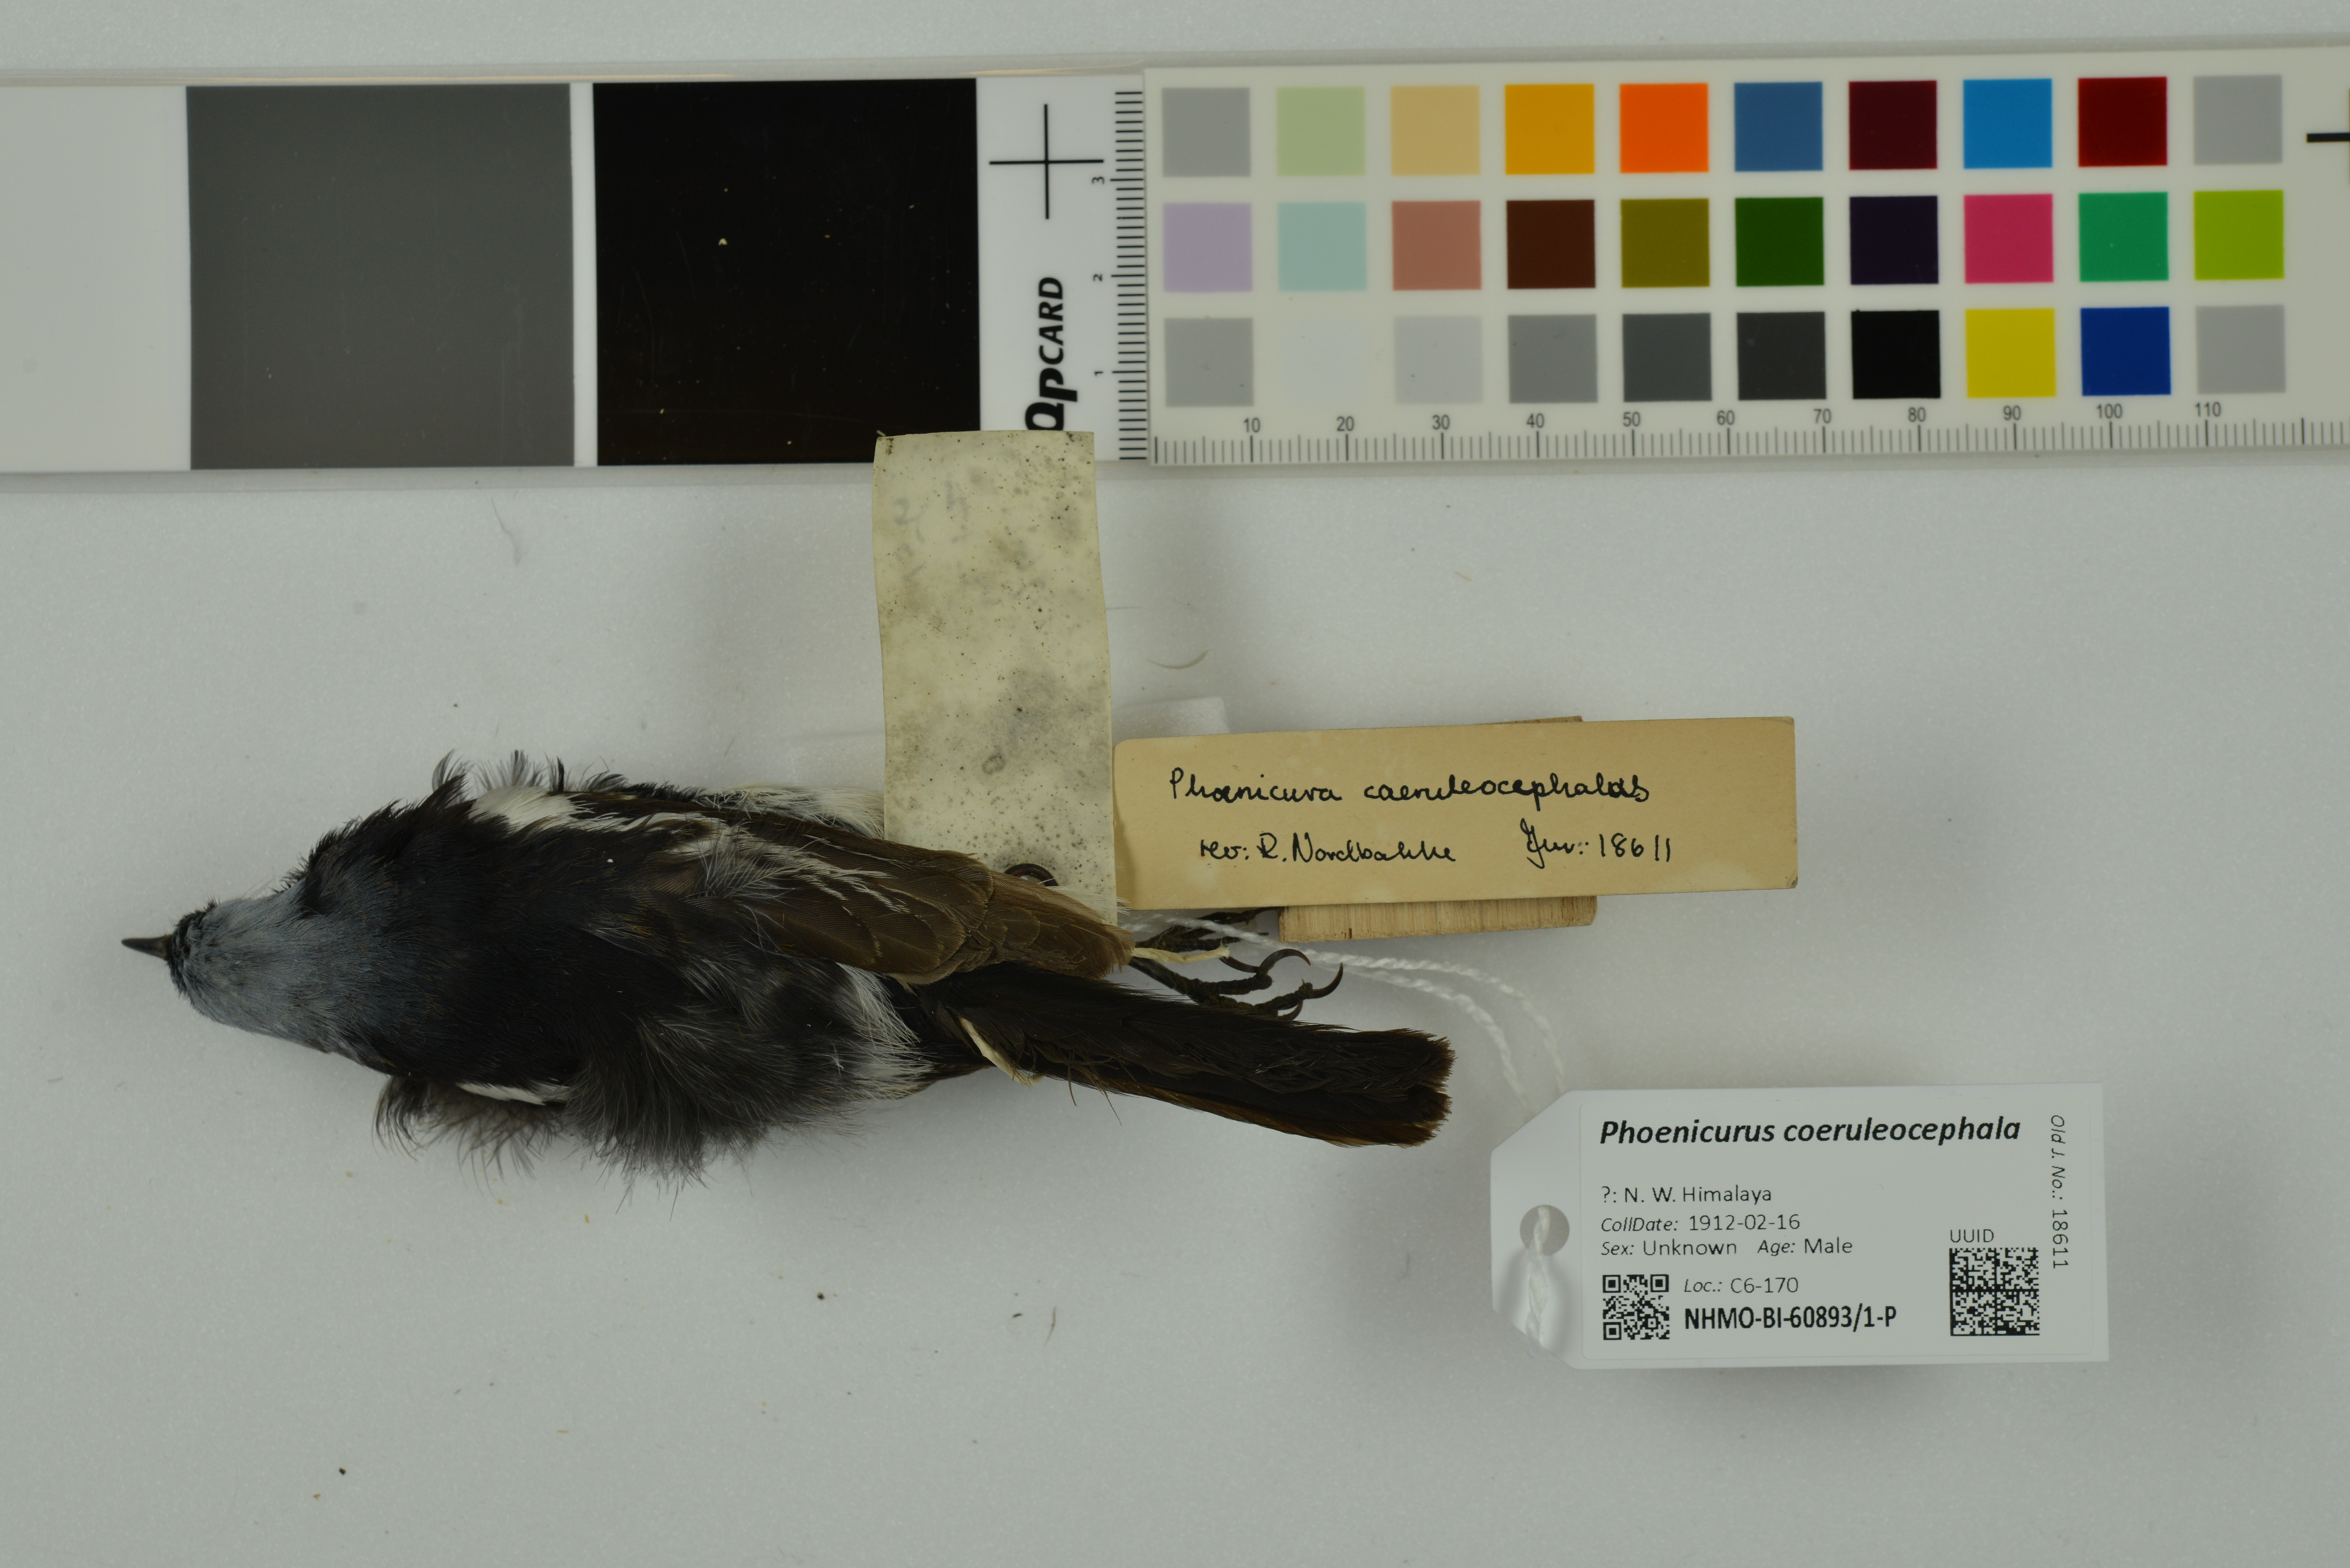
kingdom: Animalia
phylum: Chordata
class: Aves
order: Passeriformes
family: Muscicapidae
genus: Phoenicurus
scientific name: Phoenicurus coeruleocephala
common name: Blue-capped redstart
